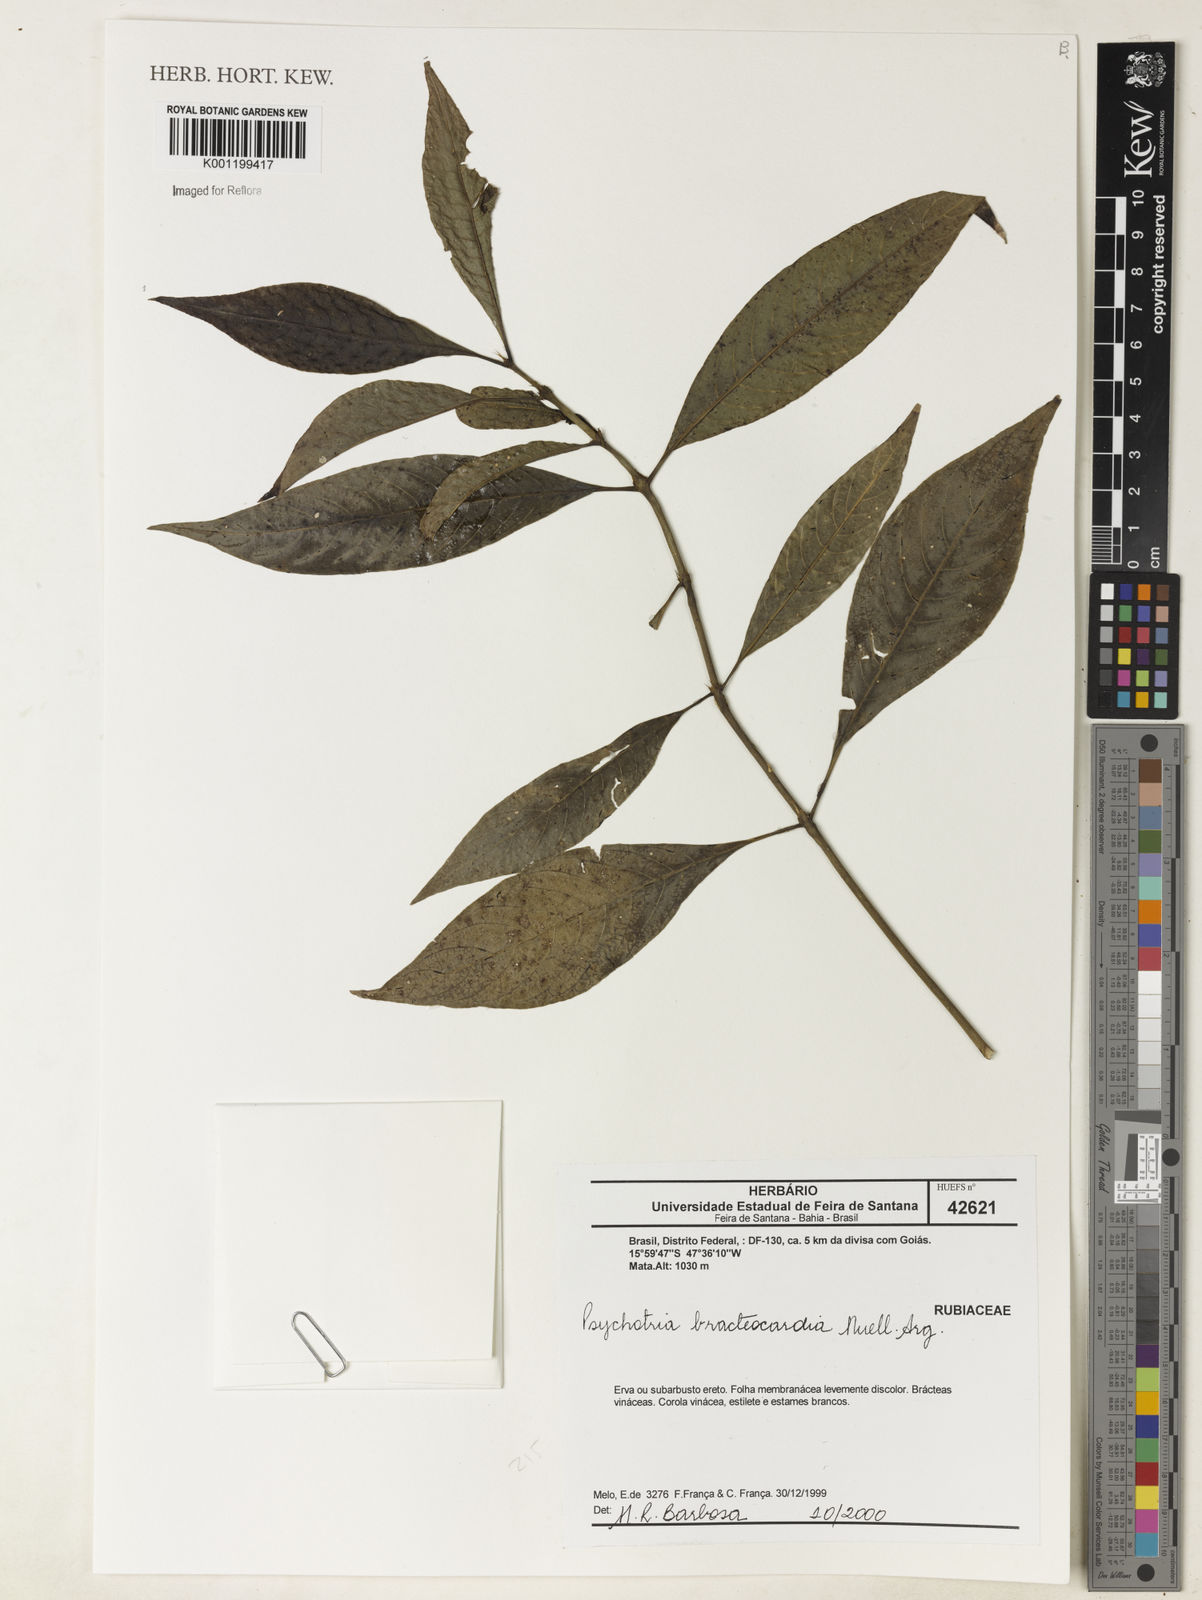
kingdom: Plantae
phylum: Tracheophyta
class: Magnoliopsida
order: Gentianales
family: Rubiaceae
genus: Psychotria
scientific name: Psychotria
